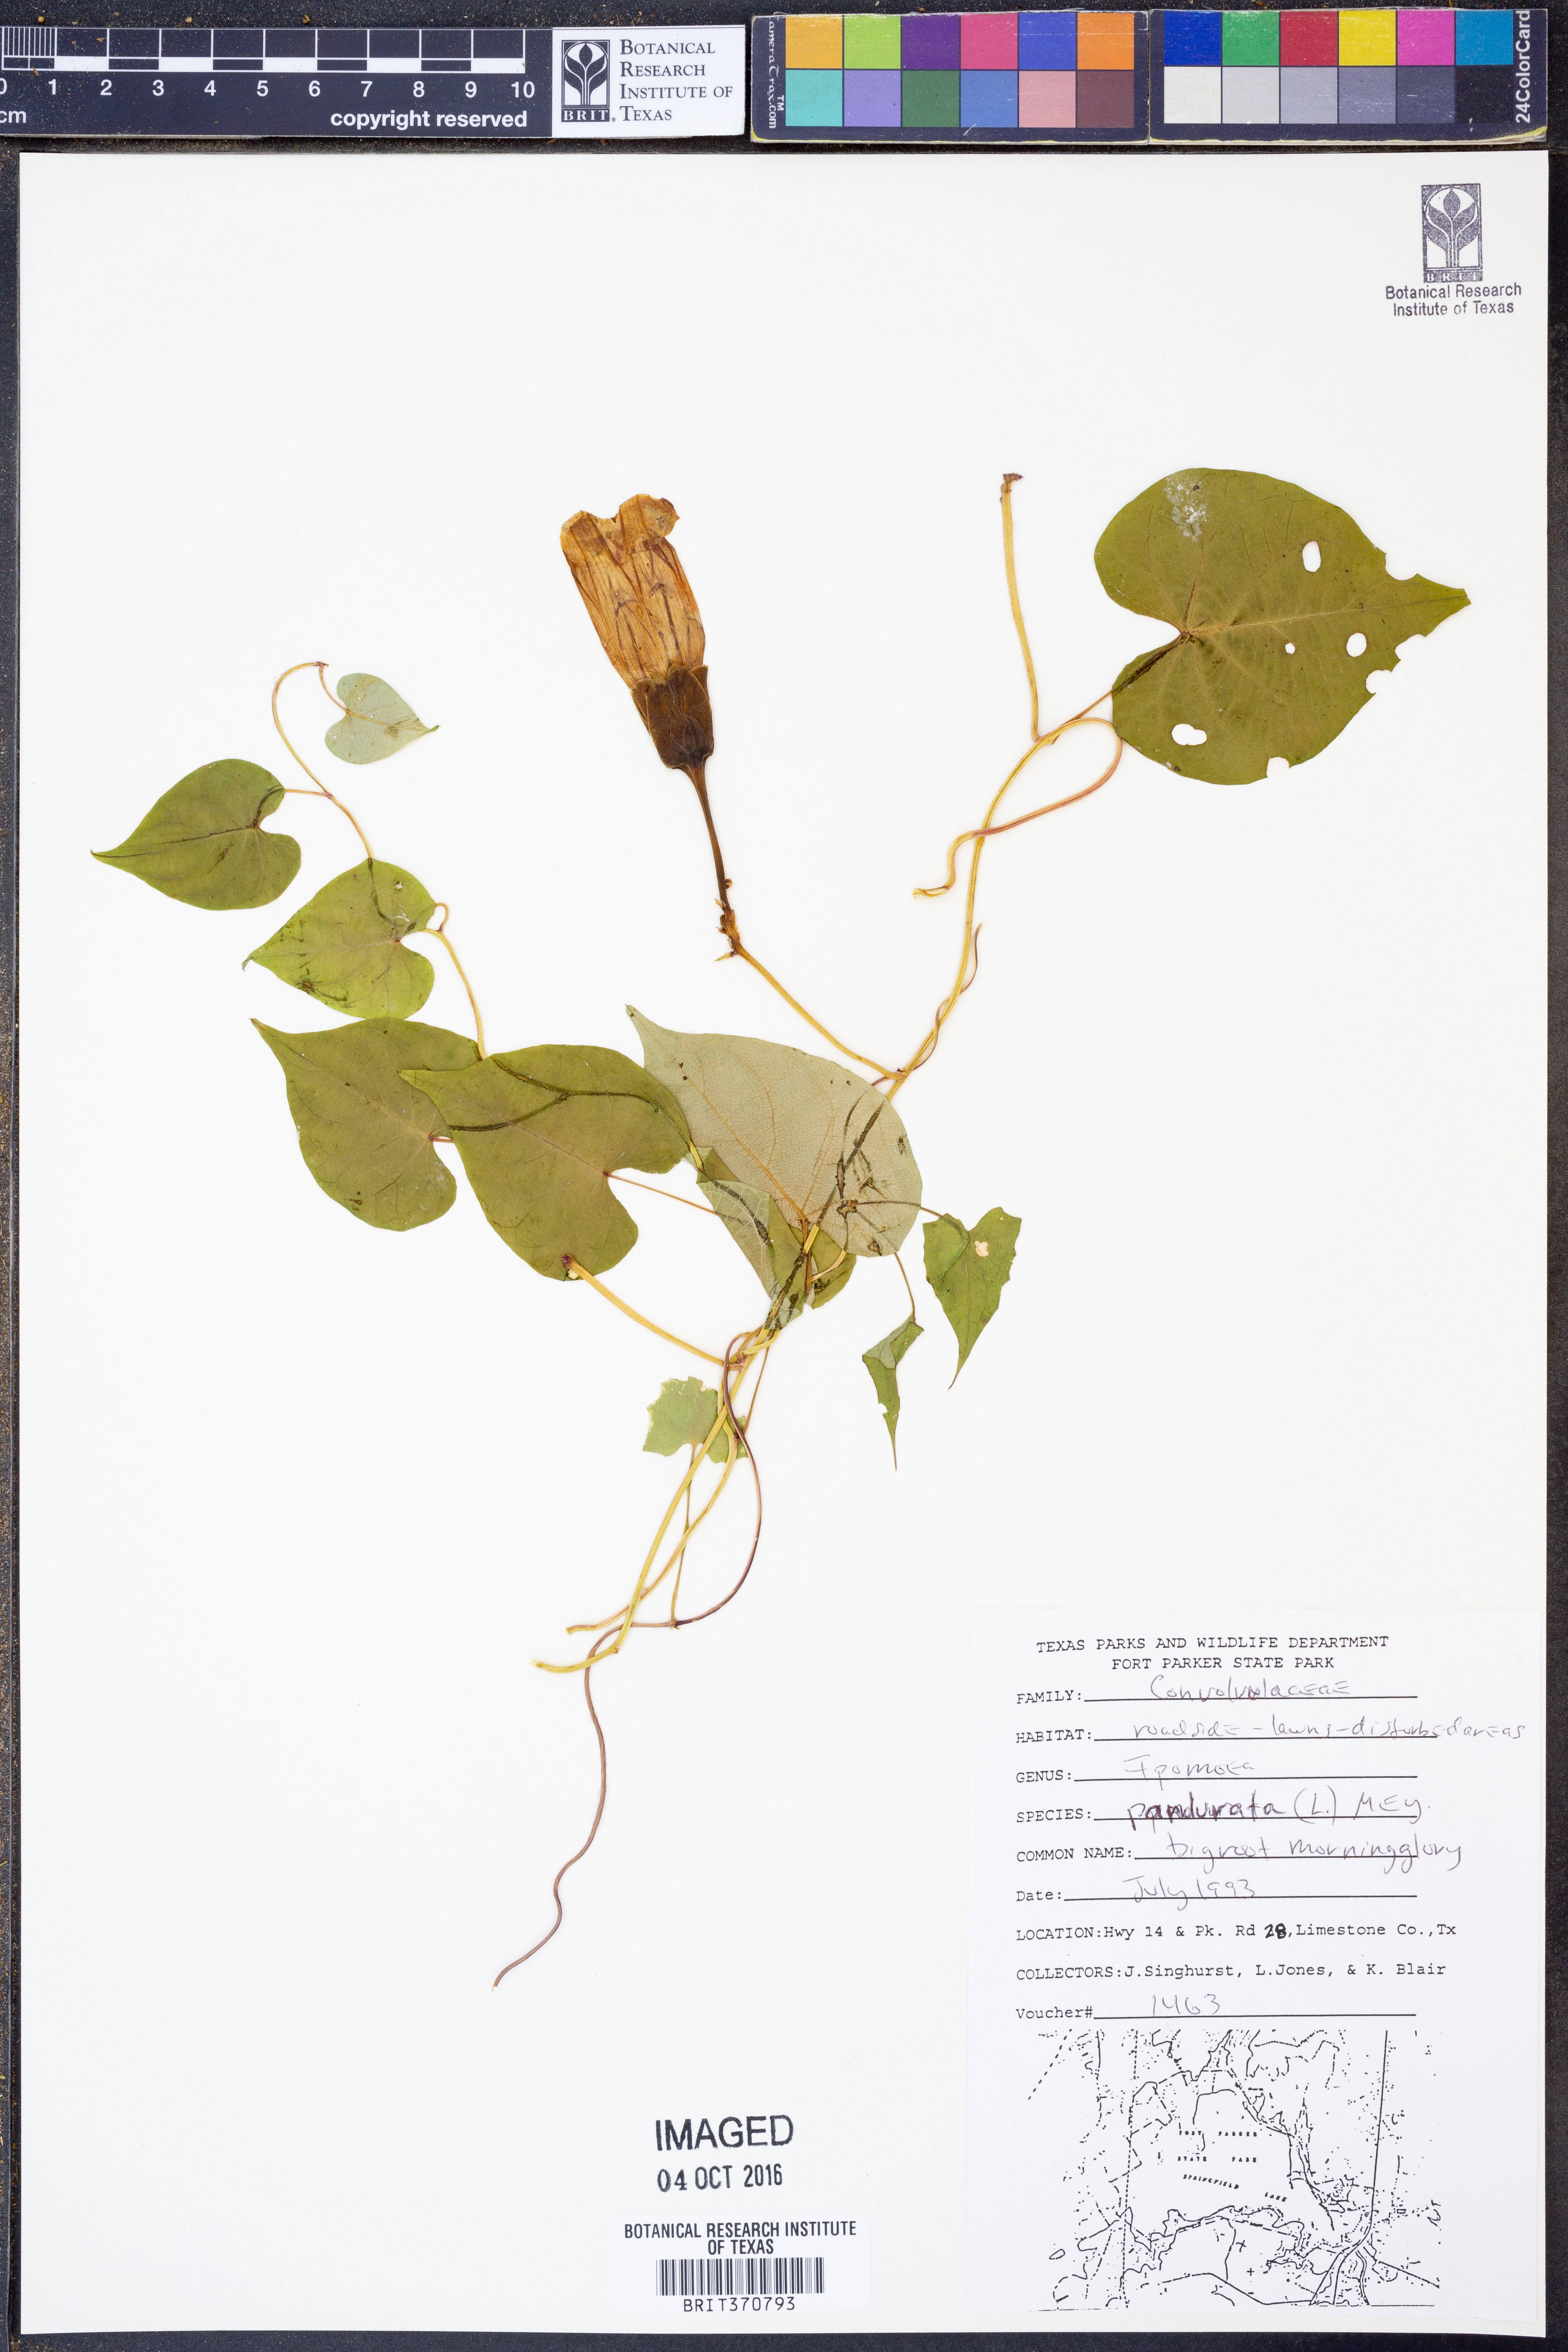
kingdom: Plantae
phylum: Tracheophyta
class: Magnoliopsida
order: Solanales
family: Convolvulaceae
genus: Ipomoea
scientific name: Ipomoea pandurata
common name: Man-of-the-earth
